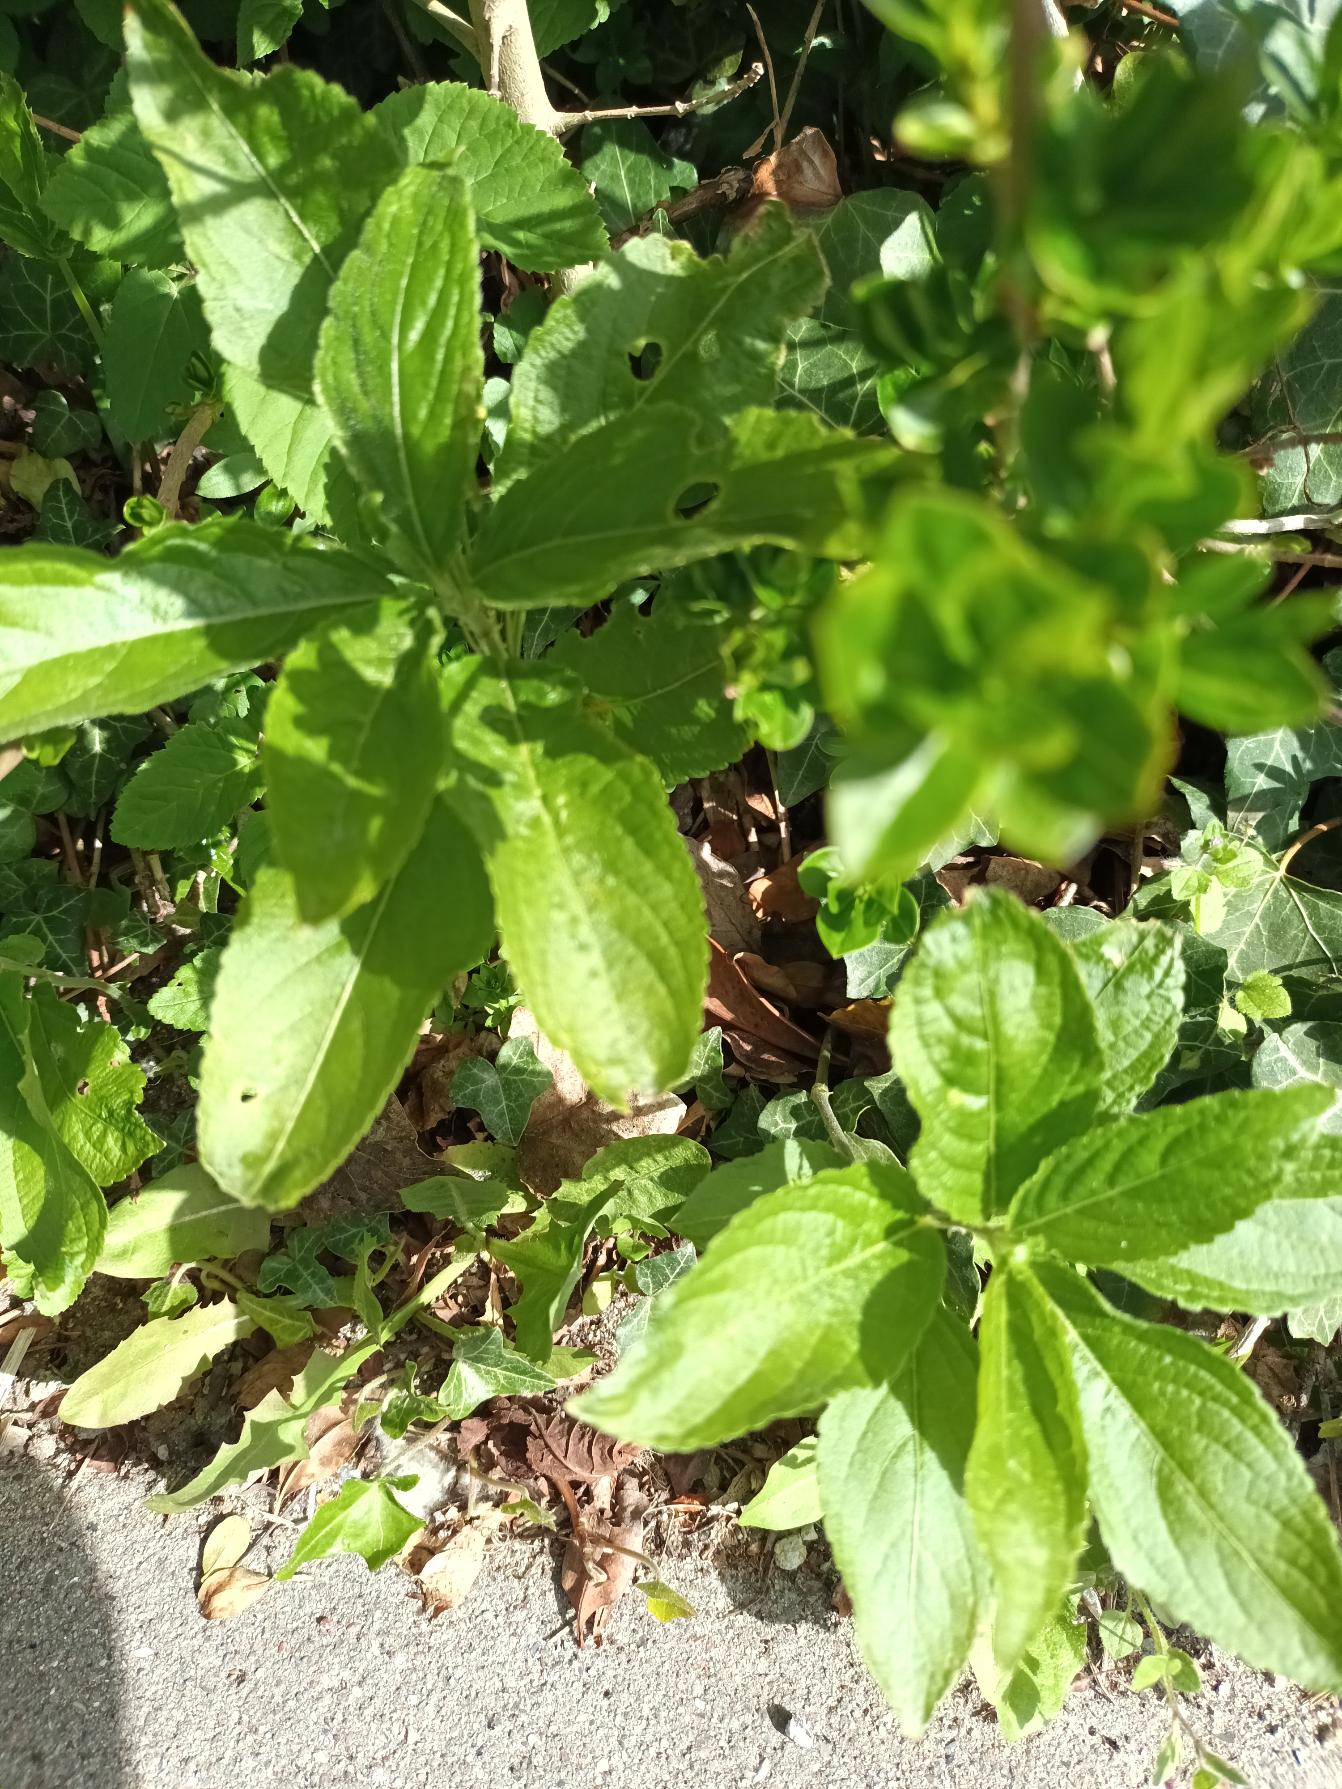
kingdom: Plantae
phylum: Tracheophyta
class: Magnoliopsida
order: Malpighiales
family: Euphorbiaceae
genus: Mercurialis
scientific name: Mercurialis perennis
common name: Almindelig bingelurt
